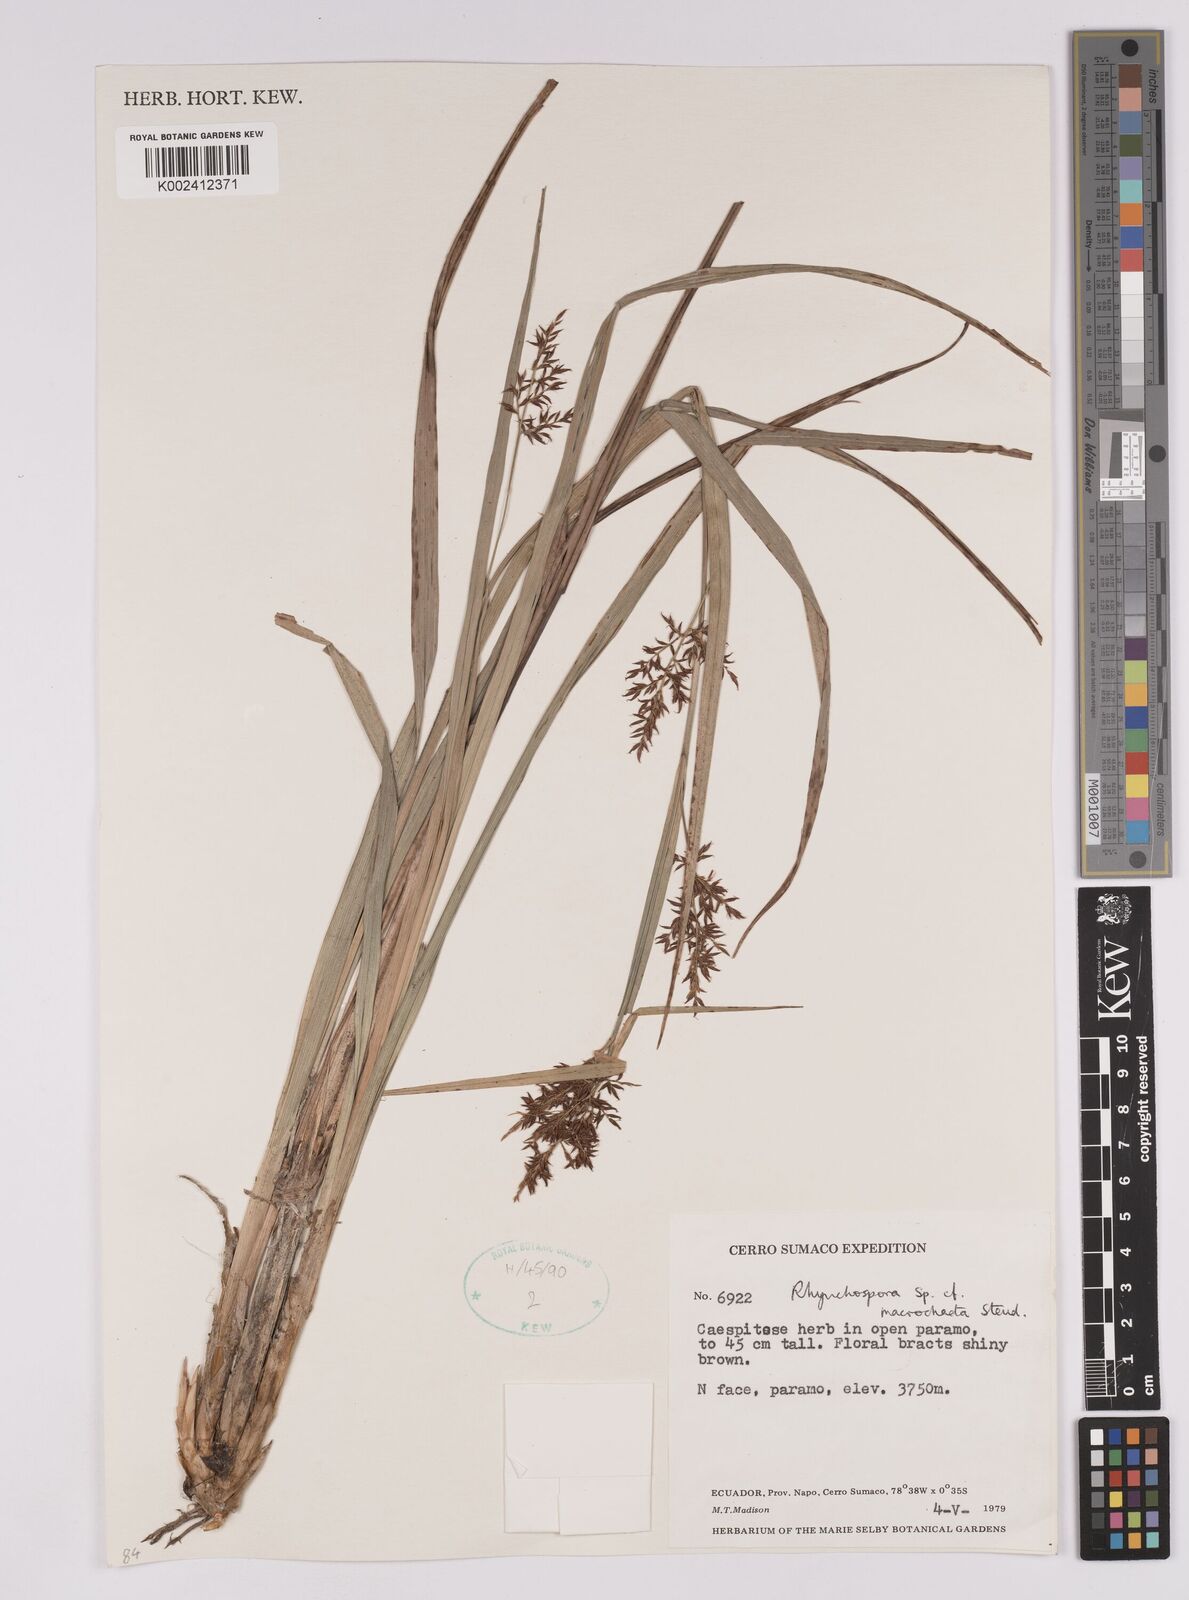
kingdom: Plantae
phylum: Tracheophyta
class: Liliopsida
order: Poales
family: Cyperaceae
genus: Rhynchospora
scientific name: Rhynchospora macrochaeta
